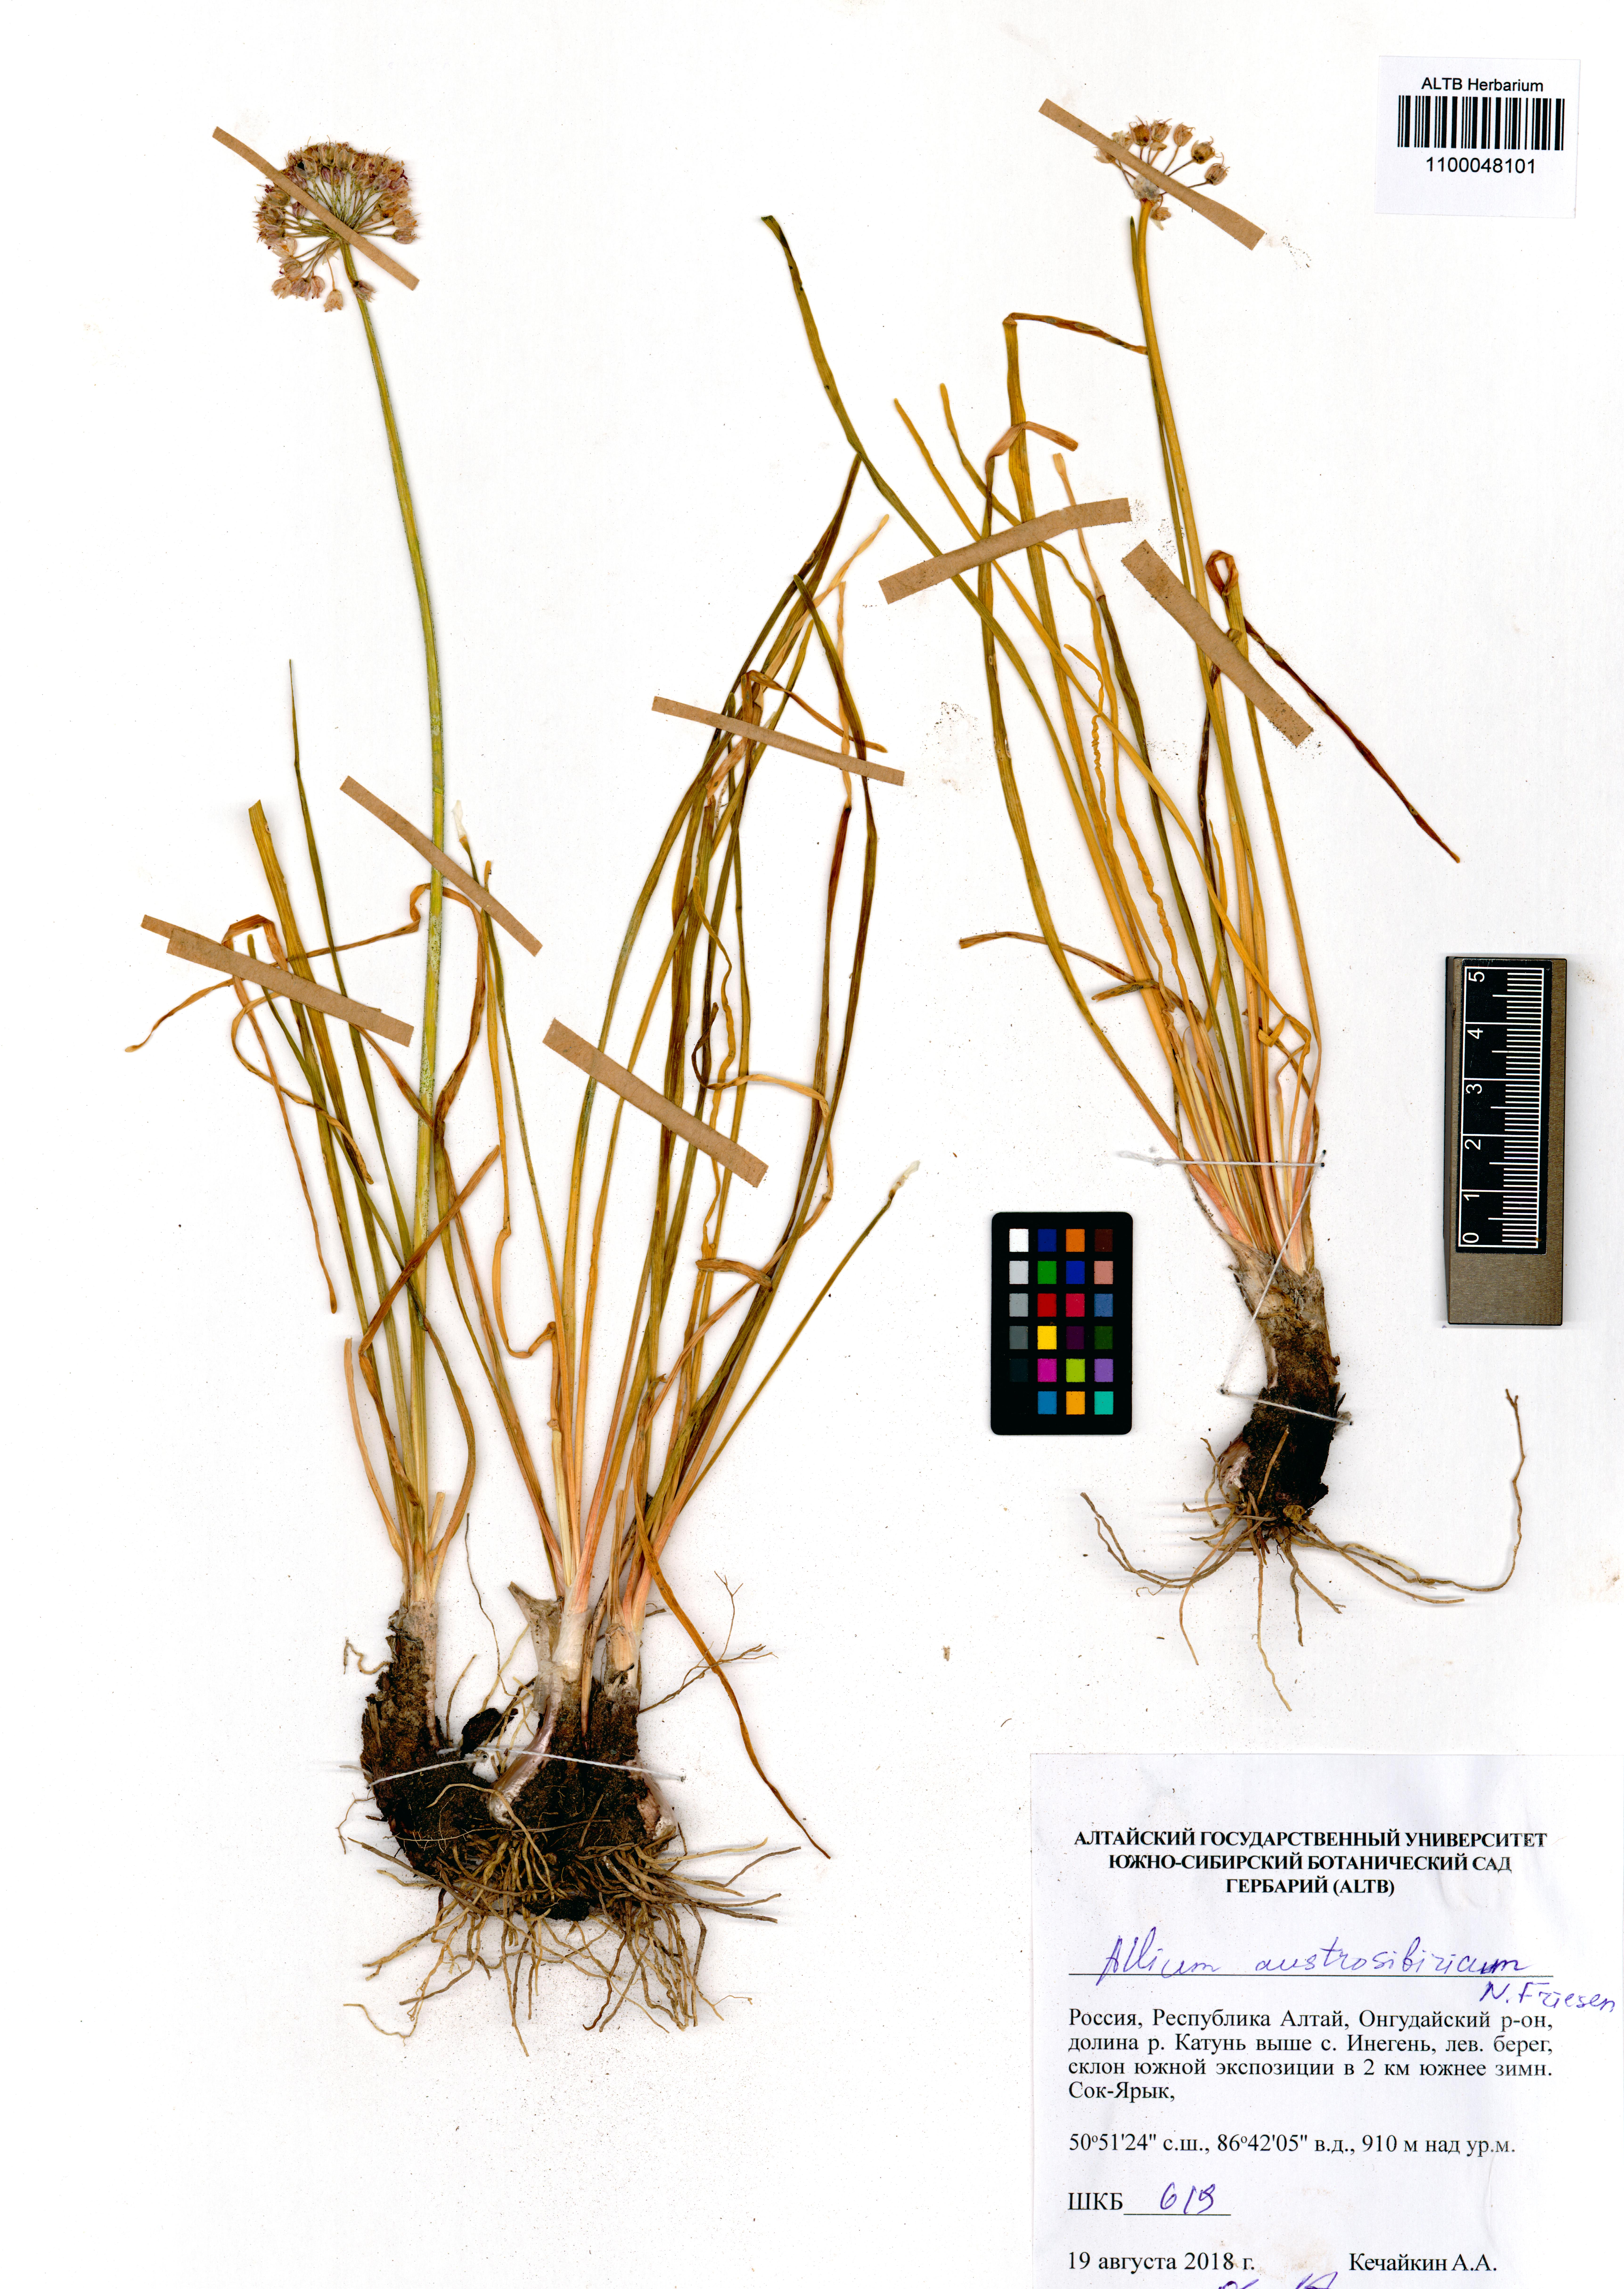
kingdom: Plantae
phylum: Tracheophyta
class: Liliopsida
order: Asparagales
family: Amaryllidaceae
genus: Allium
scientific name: Allium austrosibiricum
